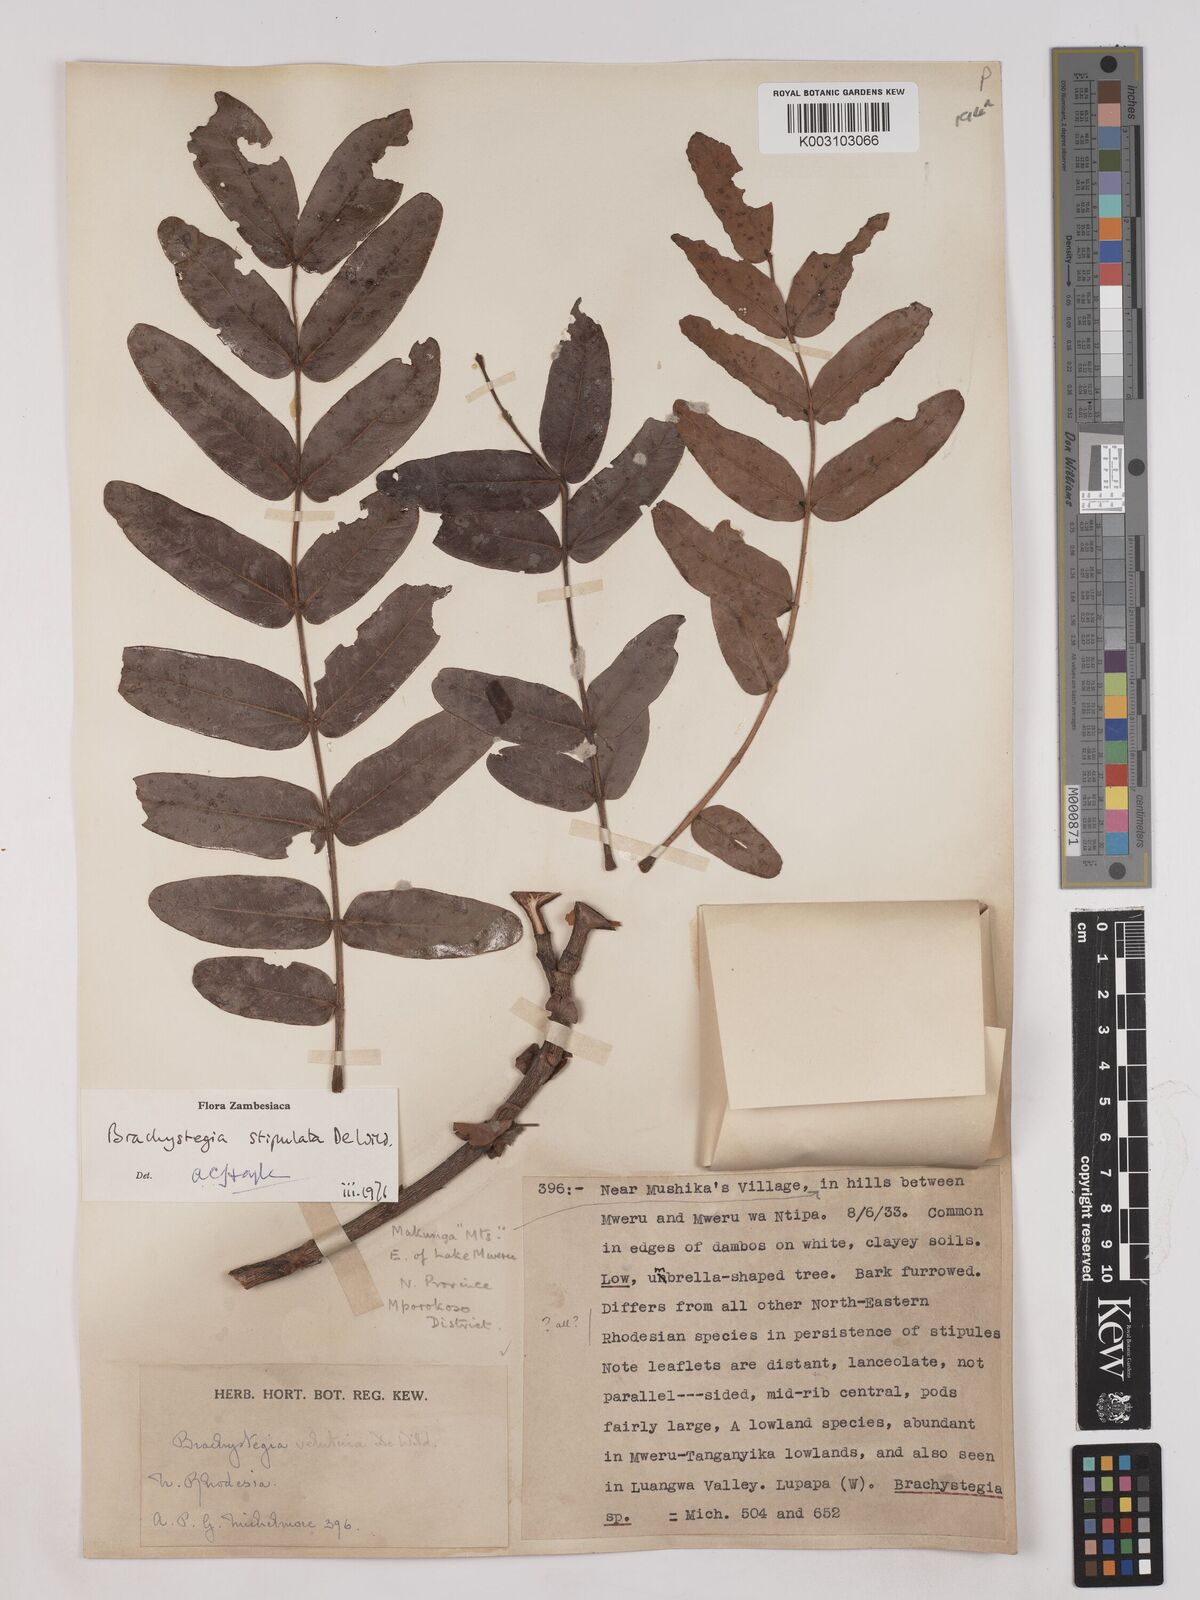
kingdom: Plantae
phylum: Tracheophyta
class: Magnoliopsida
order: Fabales
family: Fabaceae
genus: Brachystegia
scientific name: Brachystegia stipulata
